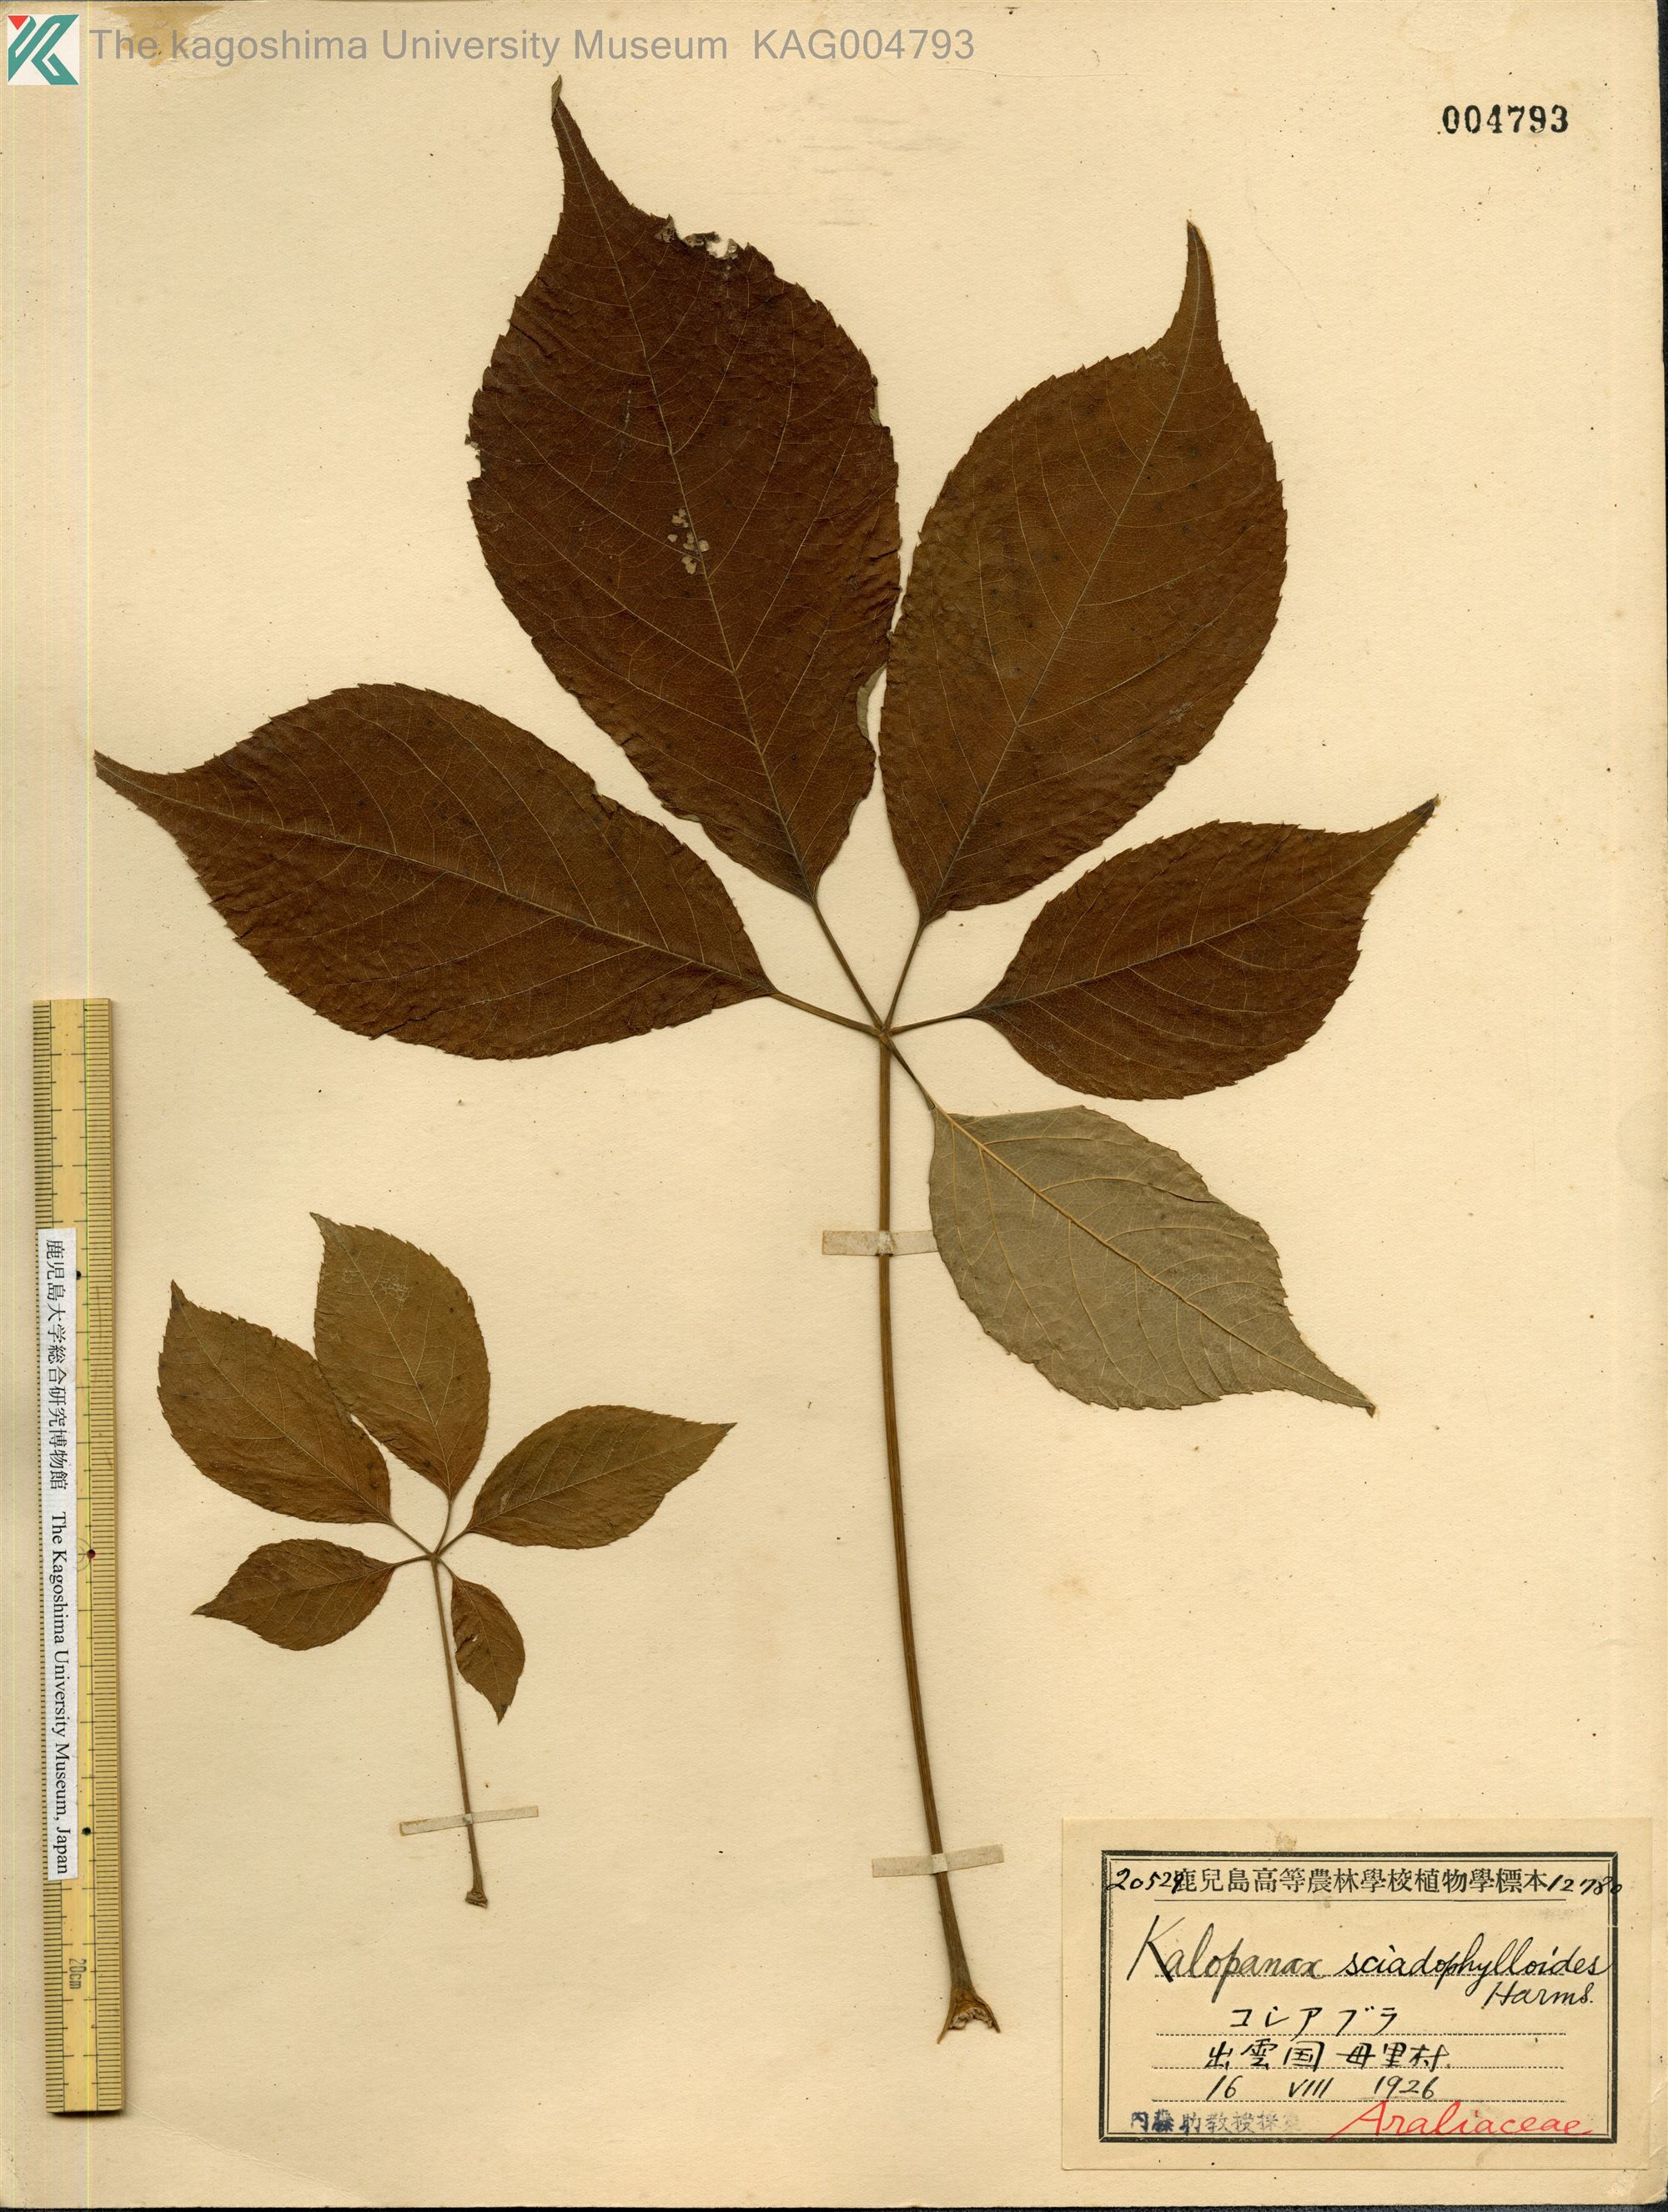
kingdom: Plantae
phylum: Tracheophyta
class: Magnoliopsida
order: Apiales
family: Araliaceae
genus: Chengiopanax
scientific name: Chengiopanax sciadophylloides
